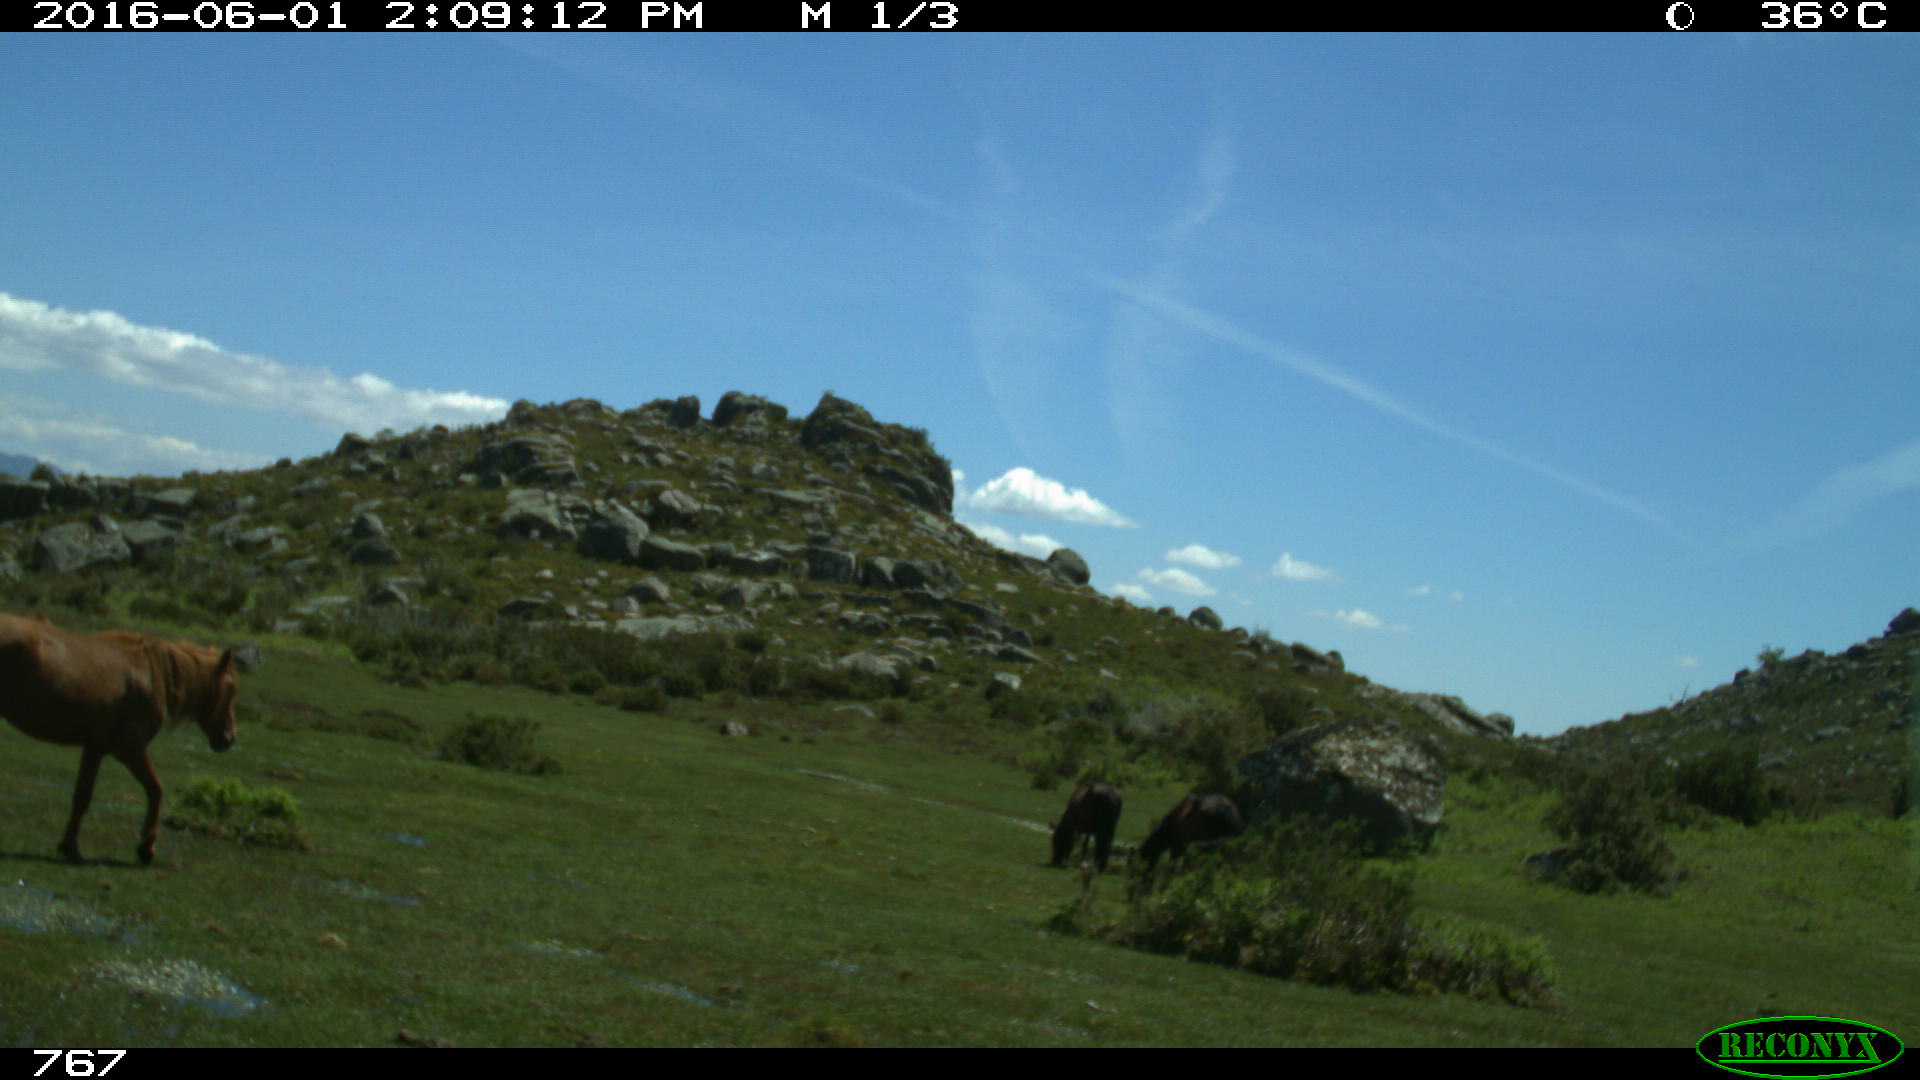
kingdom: Animalia
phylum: Chordata
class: Mammalia
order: Perissodactyla
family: Equidae
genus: Equus
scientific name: Equus caballus
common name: Horse
